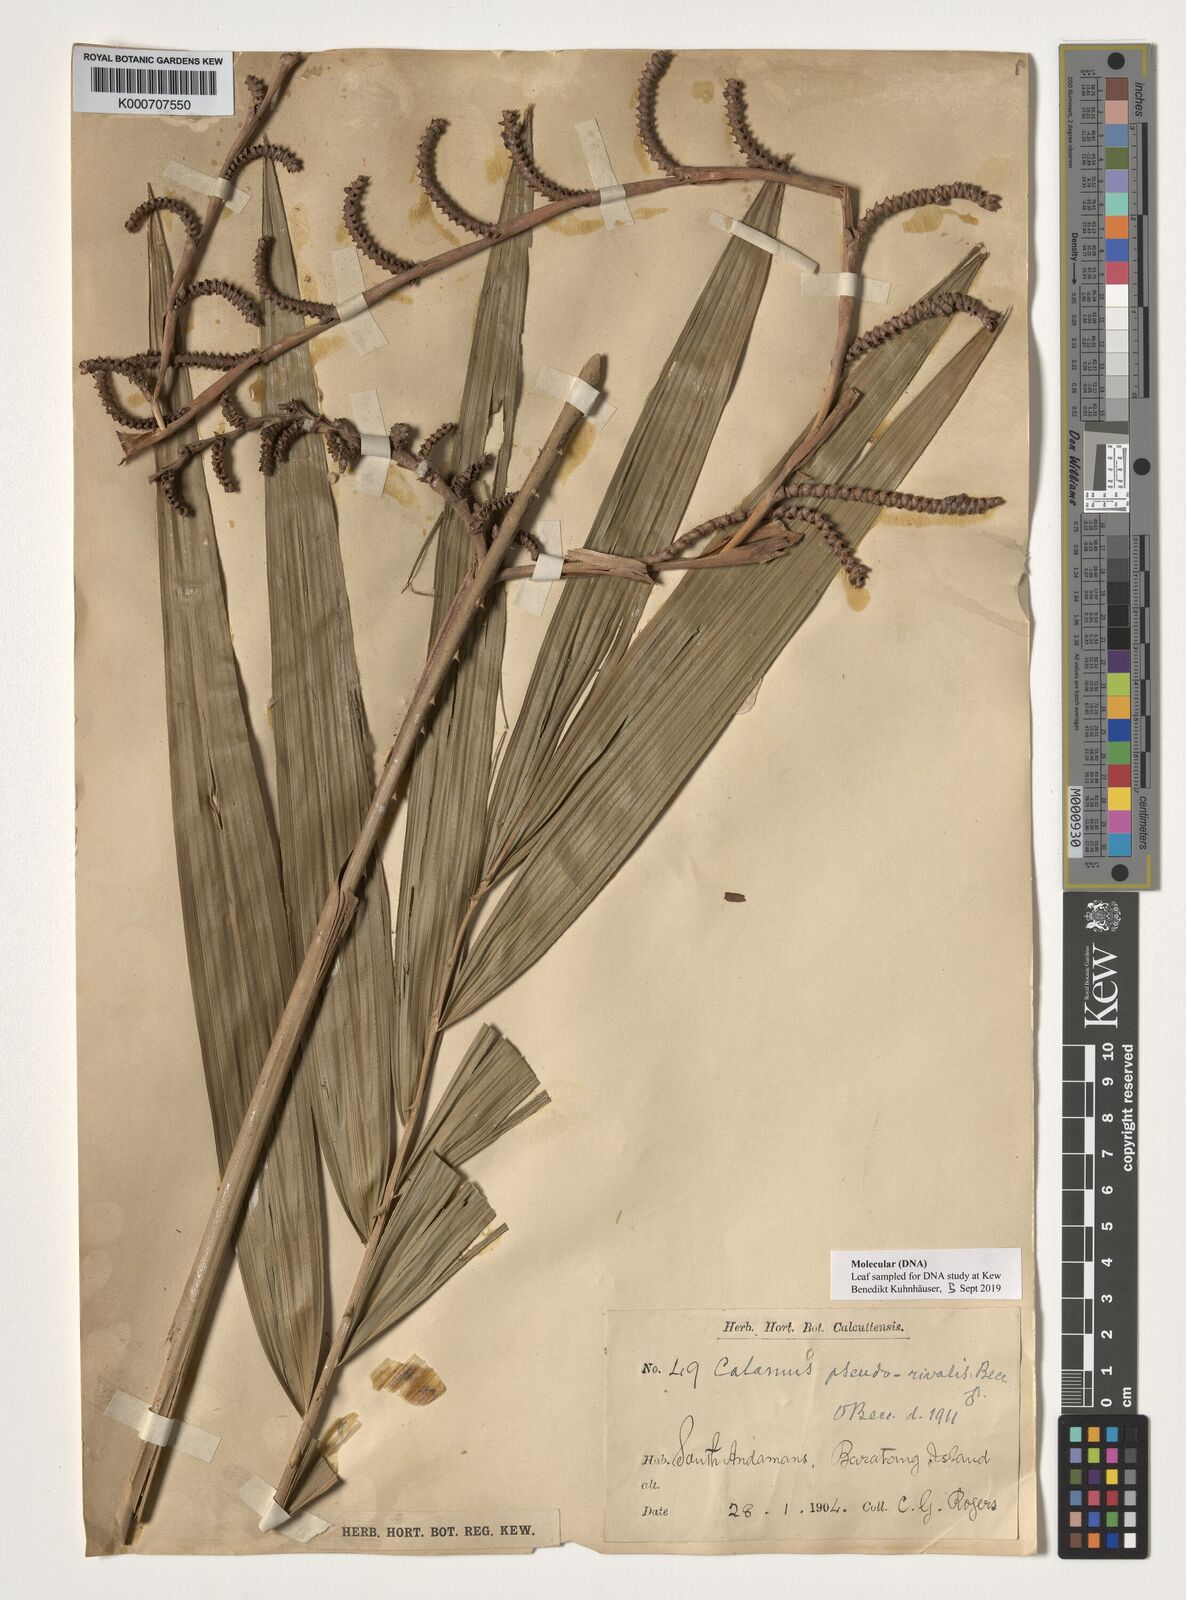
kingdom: Plantae
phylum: Tracheophyta
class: Liliopsida
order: Arecales
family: Arecaceae
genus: Calamus
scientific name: Calamus nicobaricus
